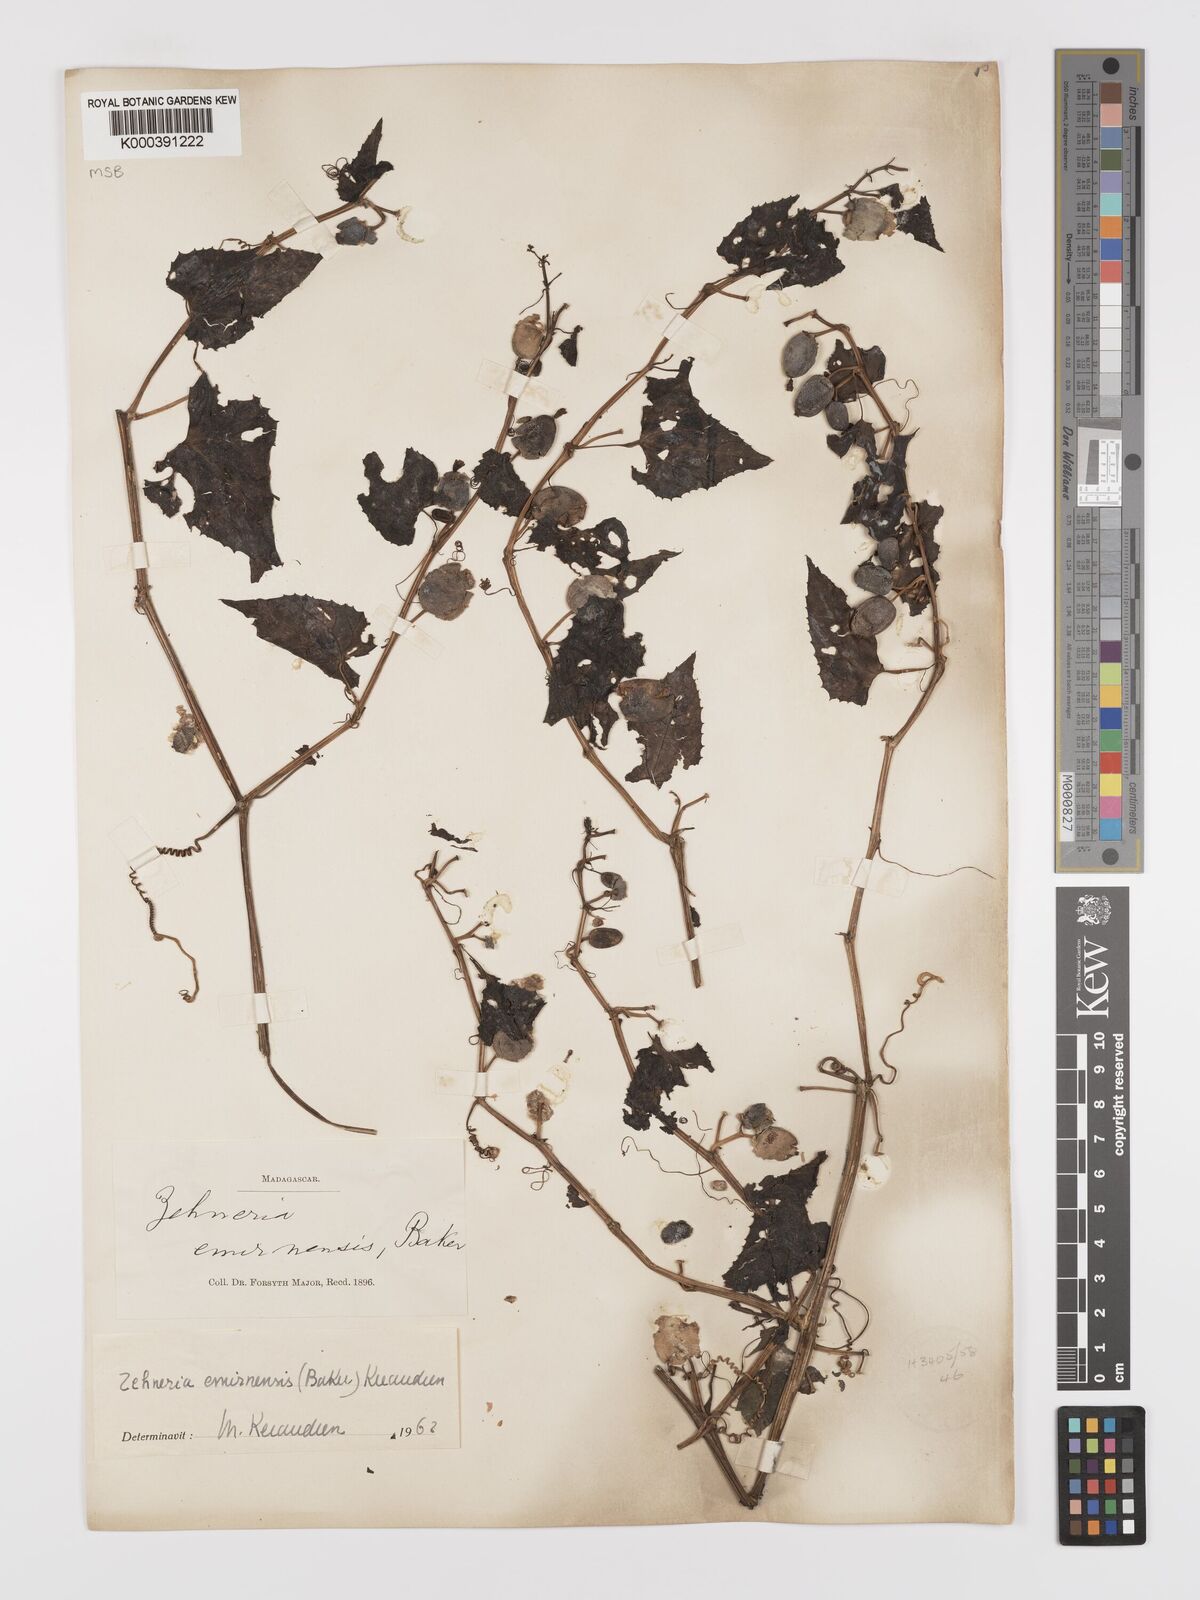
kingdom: Plantae
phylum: Tracheophyta
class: Magnoliopsida
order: Cucurbitales
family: Cucurbitaceae
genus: Zehneria
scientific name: Zehneria emirnensis
